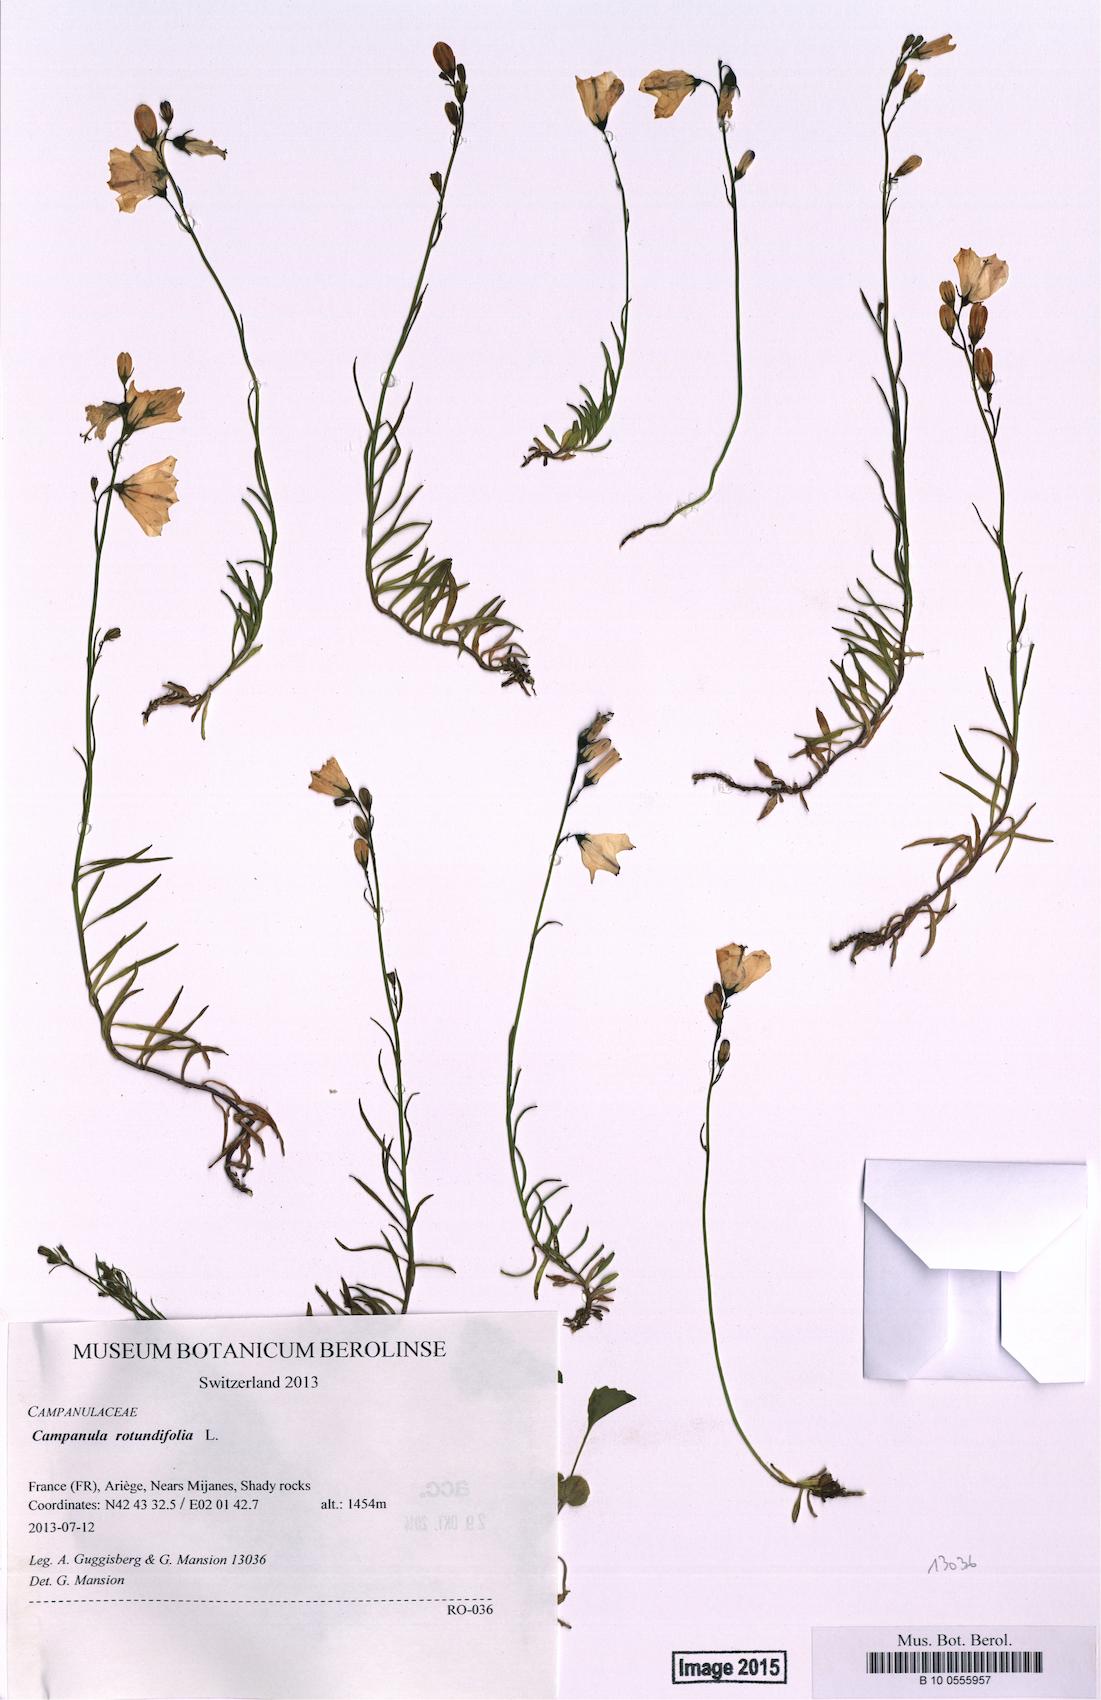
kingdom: Plantae
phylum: Tracheophyta
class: Magnoliopsida
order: Asterales
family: Campanulaceae
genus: Campanula
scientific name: Campanula rotundifolia
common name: Harebell
